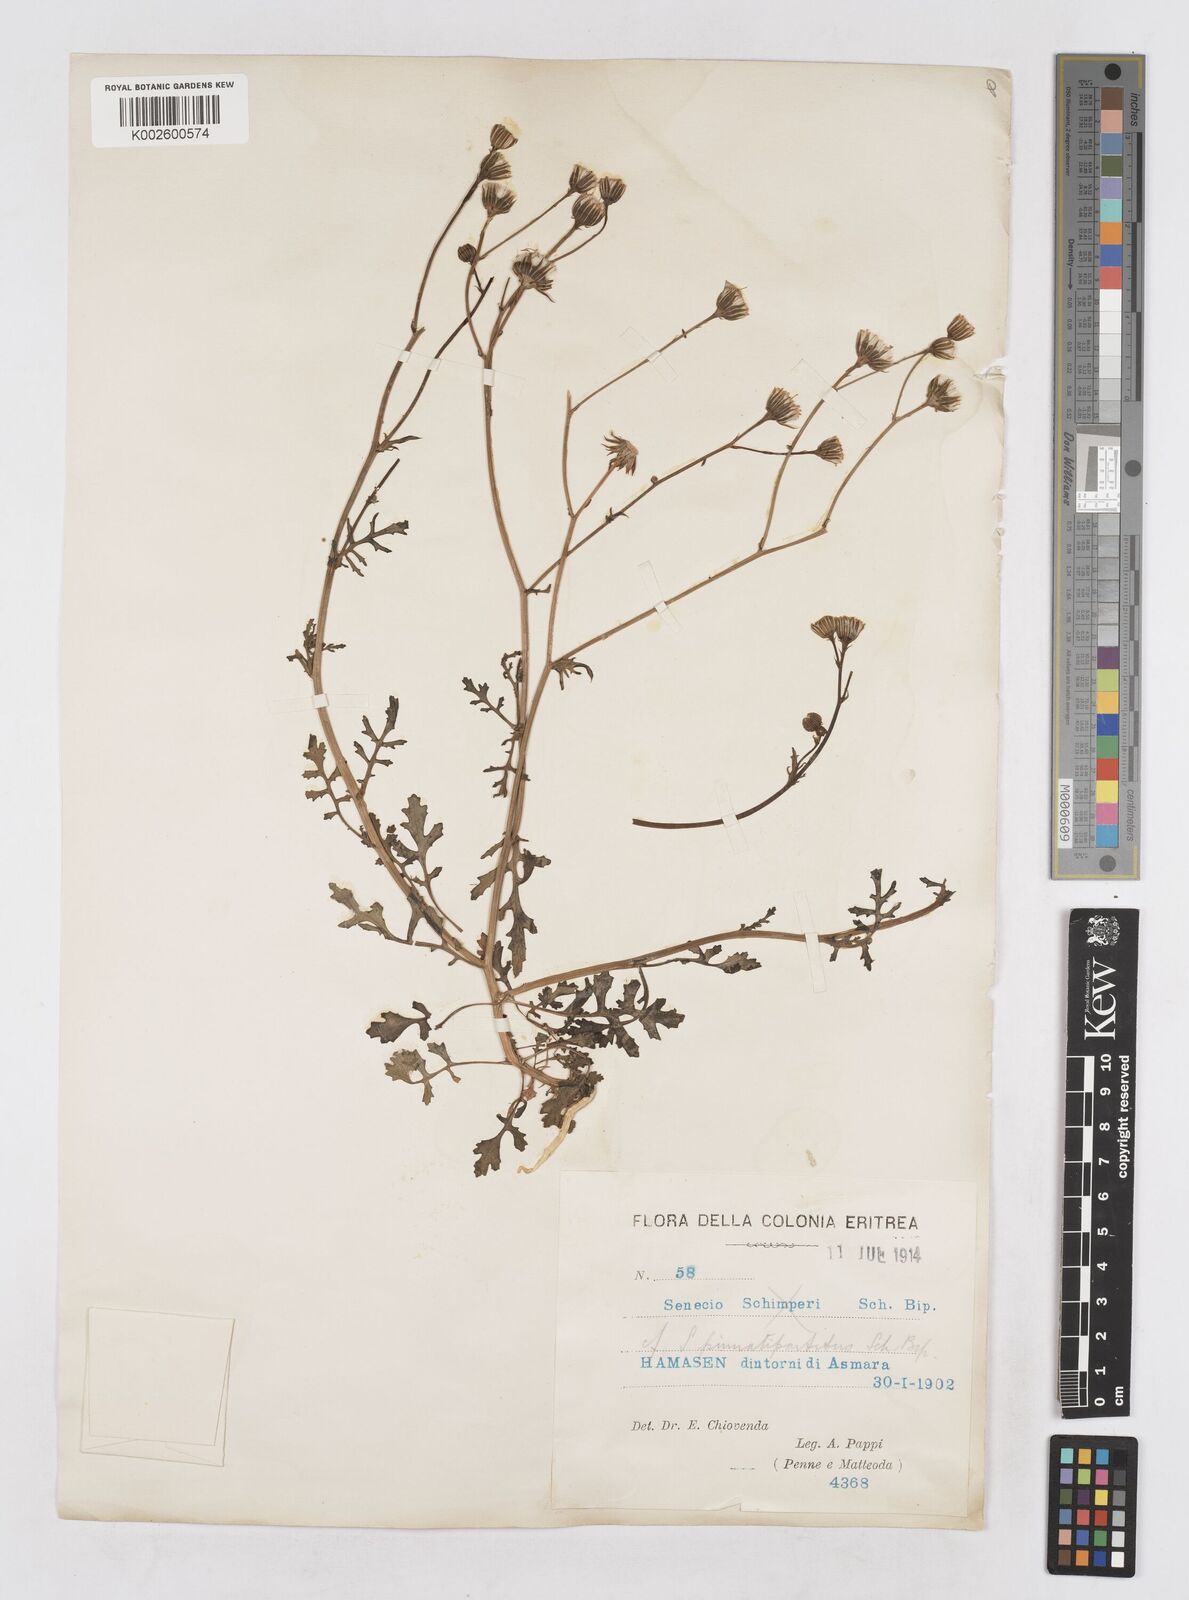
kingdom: Plantae
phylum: Tracheophyta
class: Magnoliopsida
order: Asterales
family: Asteraceae
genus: Senecio
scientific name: Senecio pinnatipartitus
